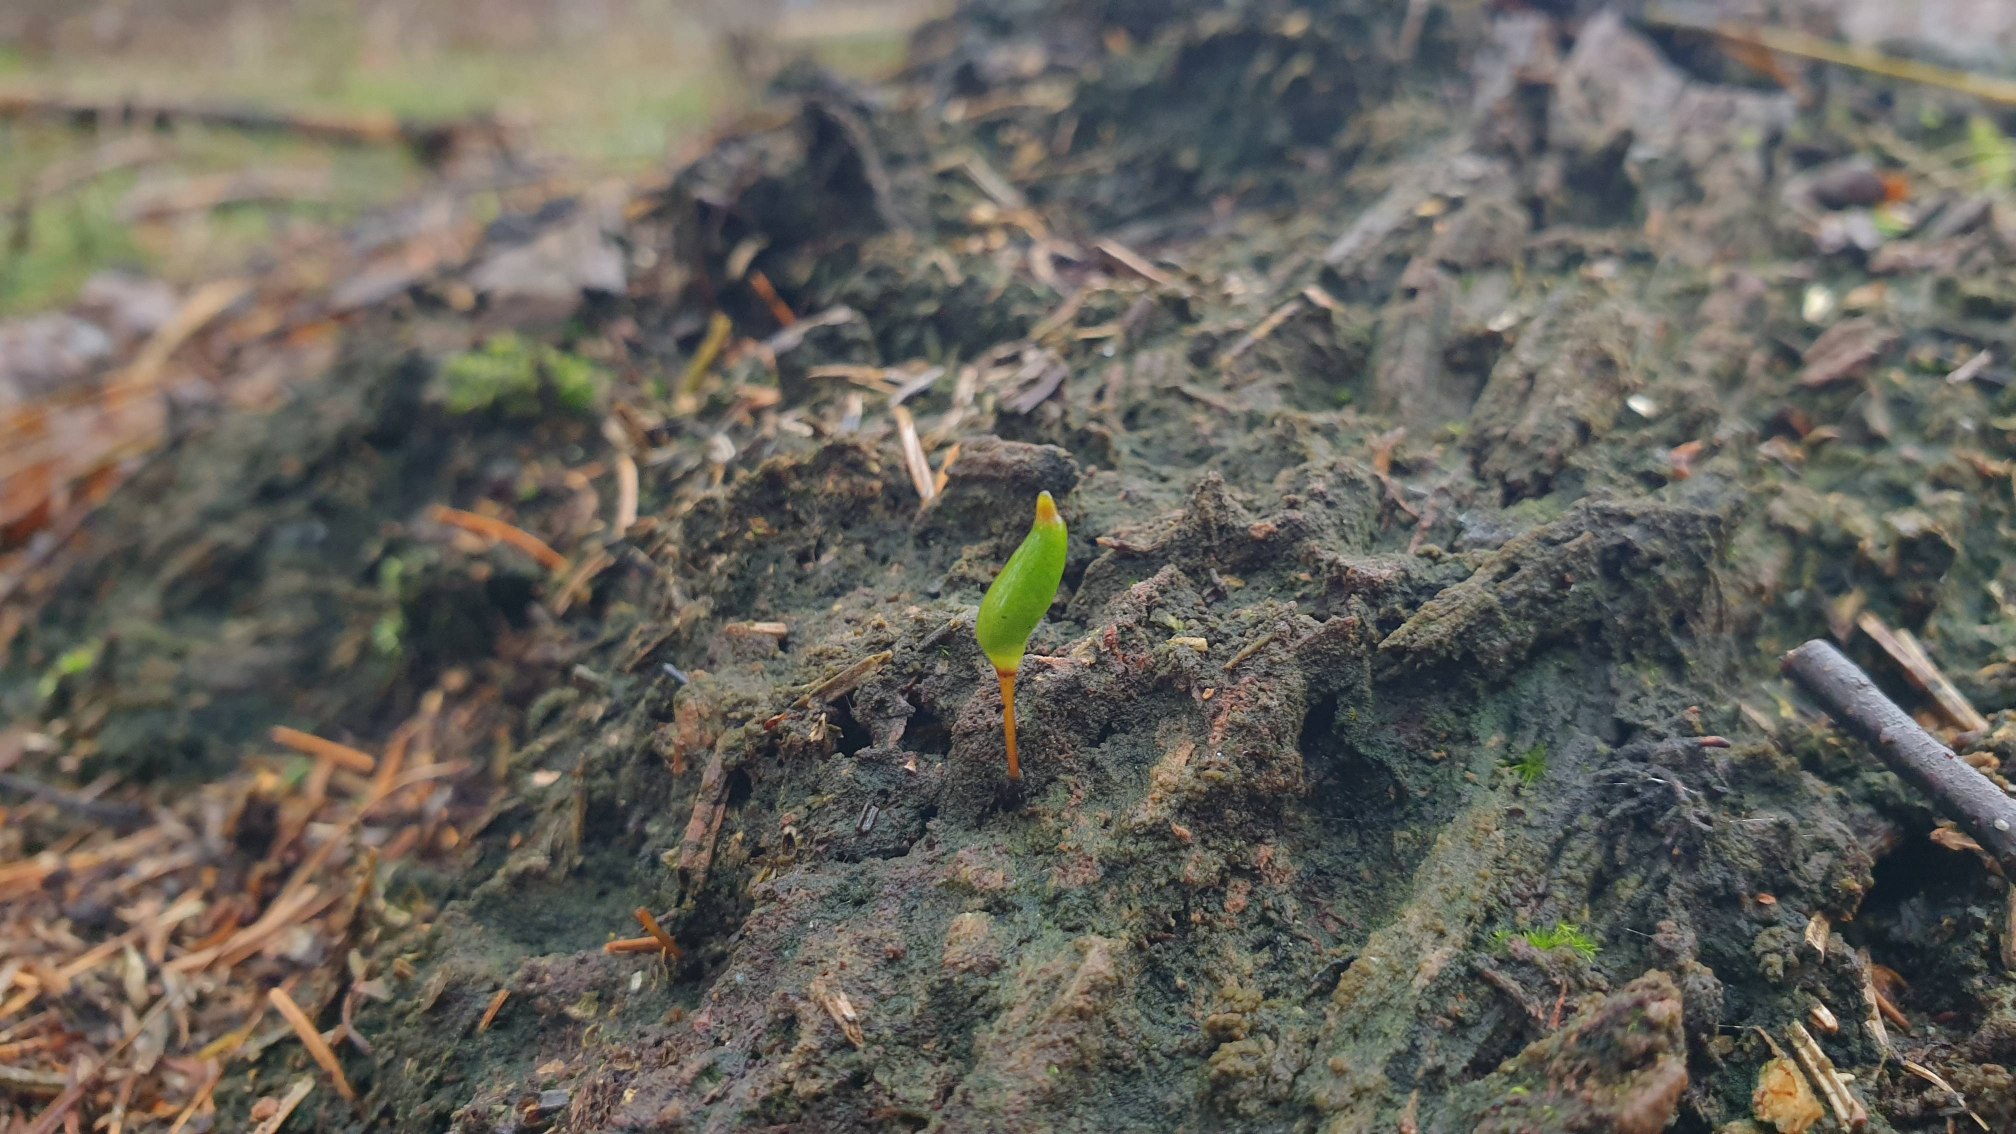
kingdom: Plantae
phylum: Bryophyta
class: Bryopsida
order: Buxbaumiales
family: Buxbaumiaceae
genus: Buxbaumia
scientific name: Buxbaumia viridis
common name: Grøn buxbaumia
